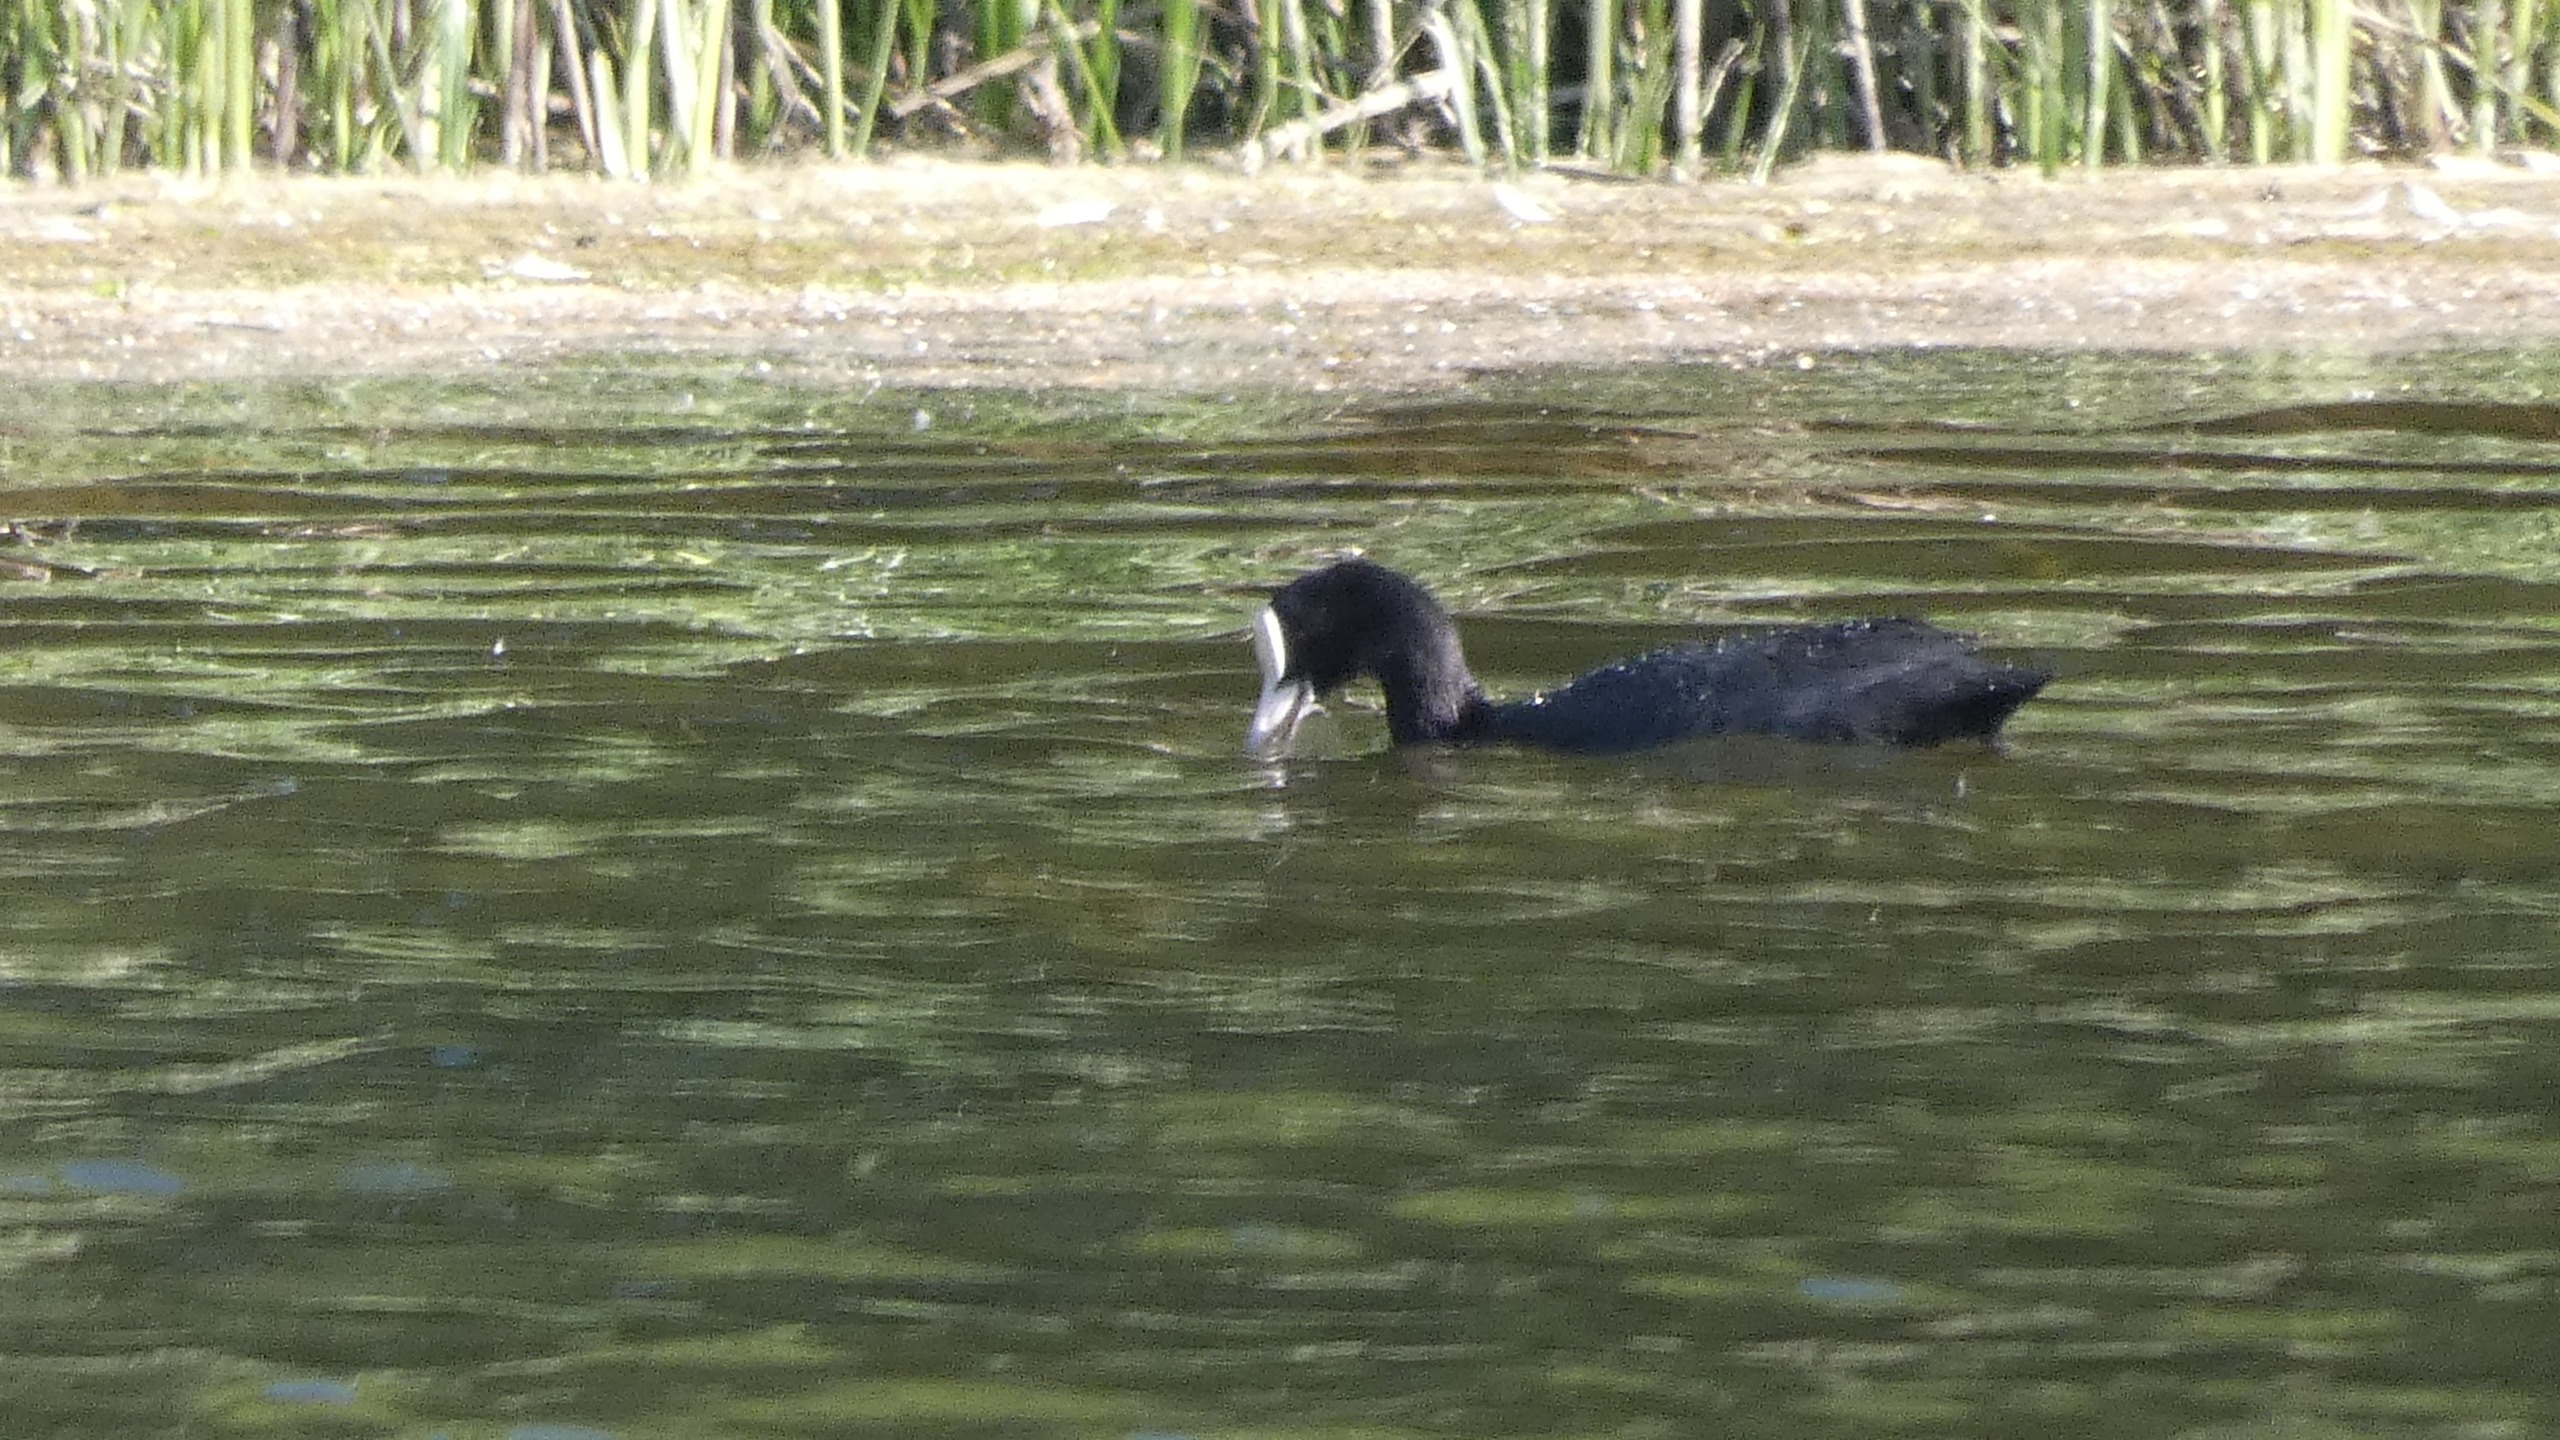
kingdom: Animalia
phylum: Chordata
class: Aves
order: Gruiformes
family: Rallidae
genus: Fulica
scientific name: Fulica atra
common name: Blishøne
